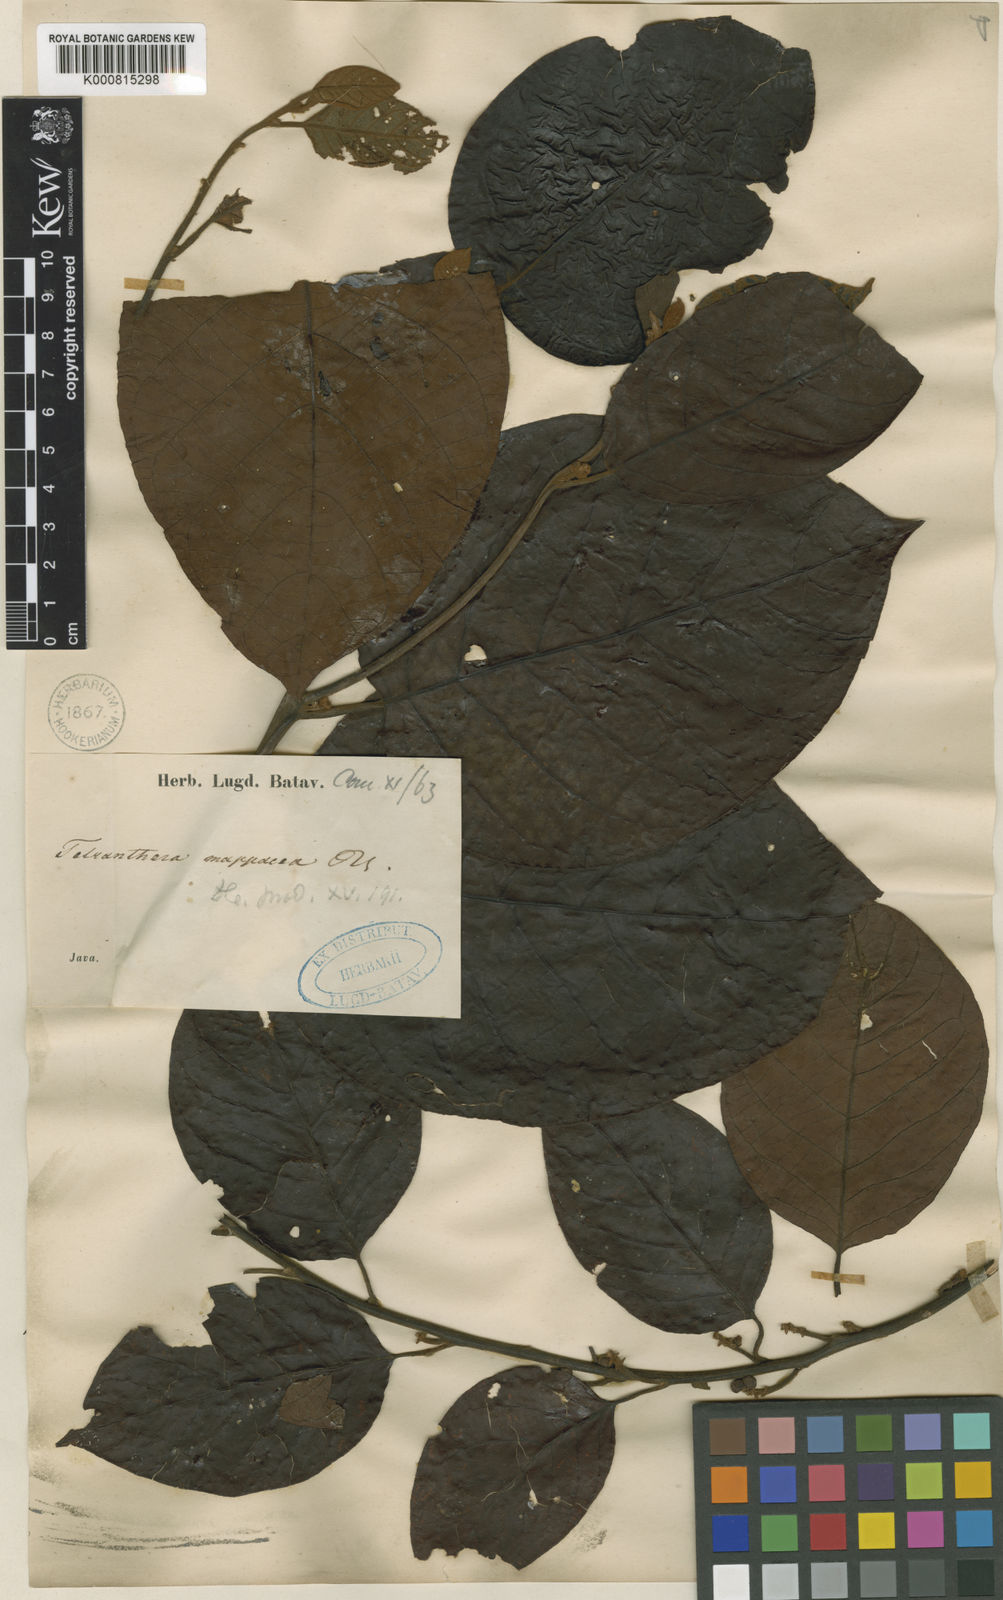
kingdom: Plantae
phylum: Tracheophyta
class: Magnoliopsida
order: Laurales
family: Lauraceae
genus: Litsea
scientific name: Litsea cordata
